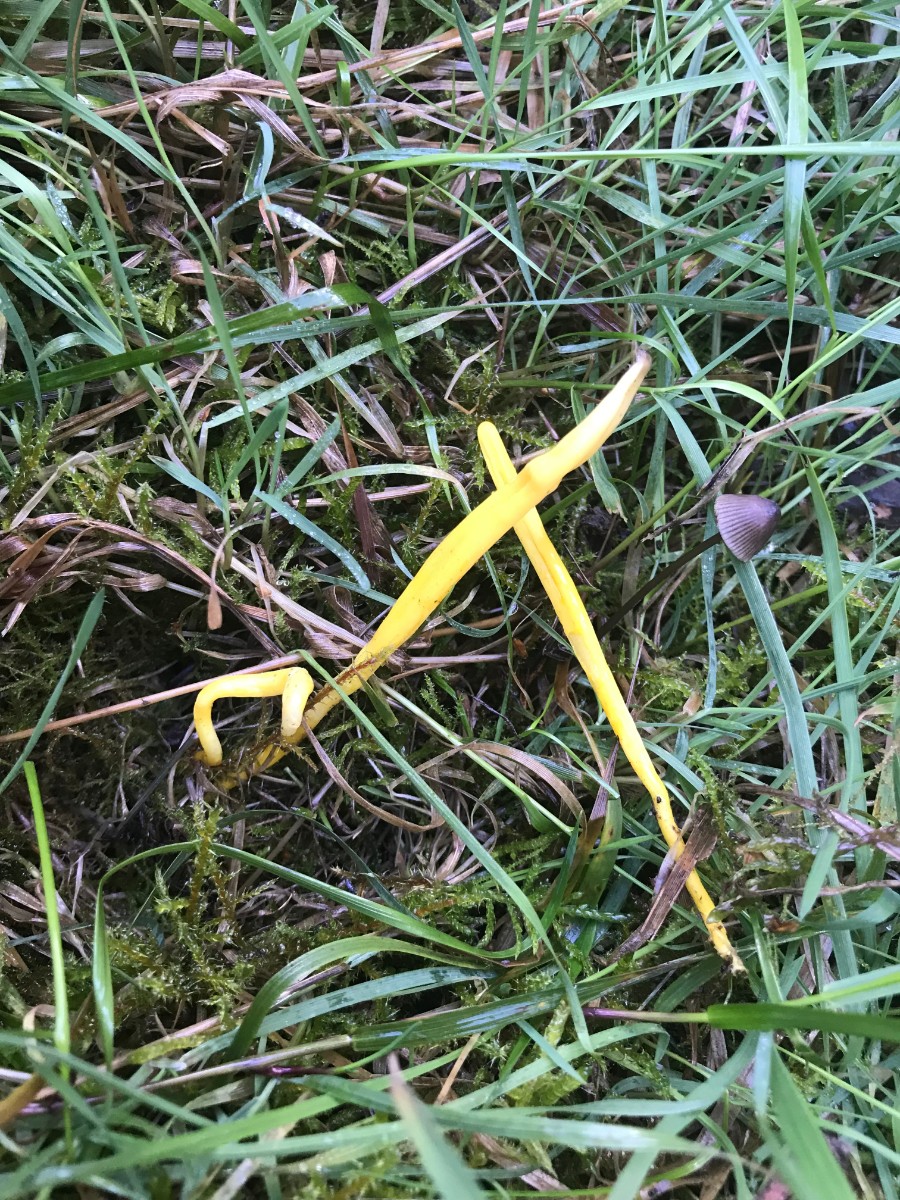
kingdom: Fungi
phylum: Basidiomycota
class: Agaricomycetes
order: Agaricales
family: Clavariaceae
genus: Clavulinopsis
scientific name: Clavulinopsis helvola
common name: orangegul køllesvamp
